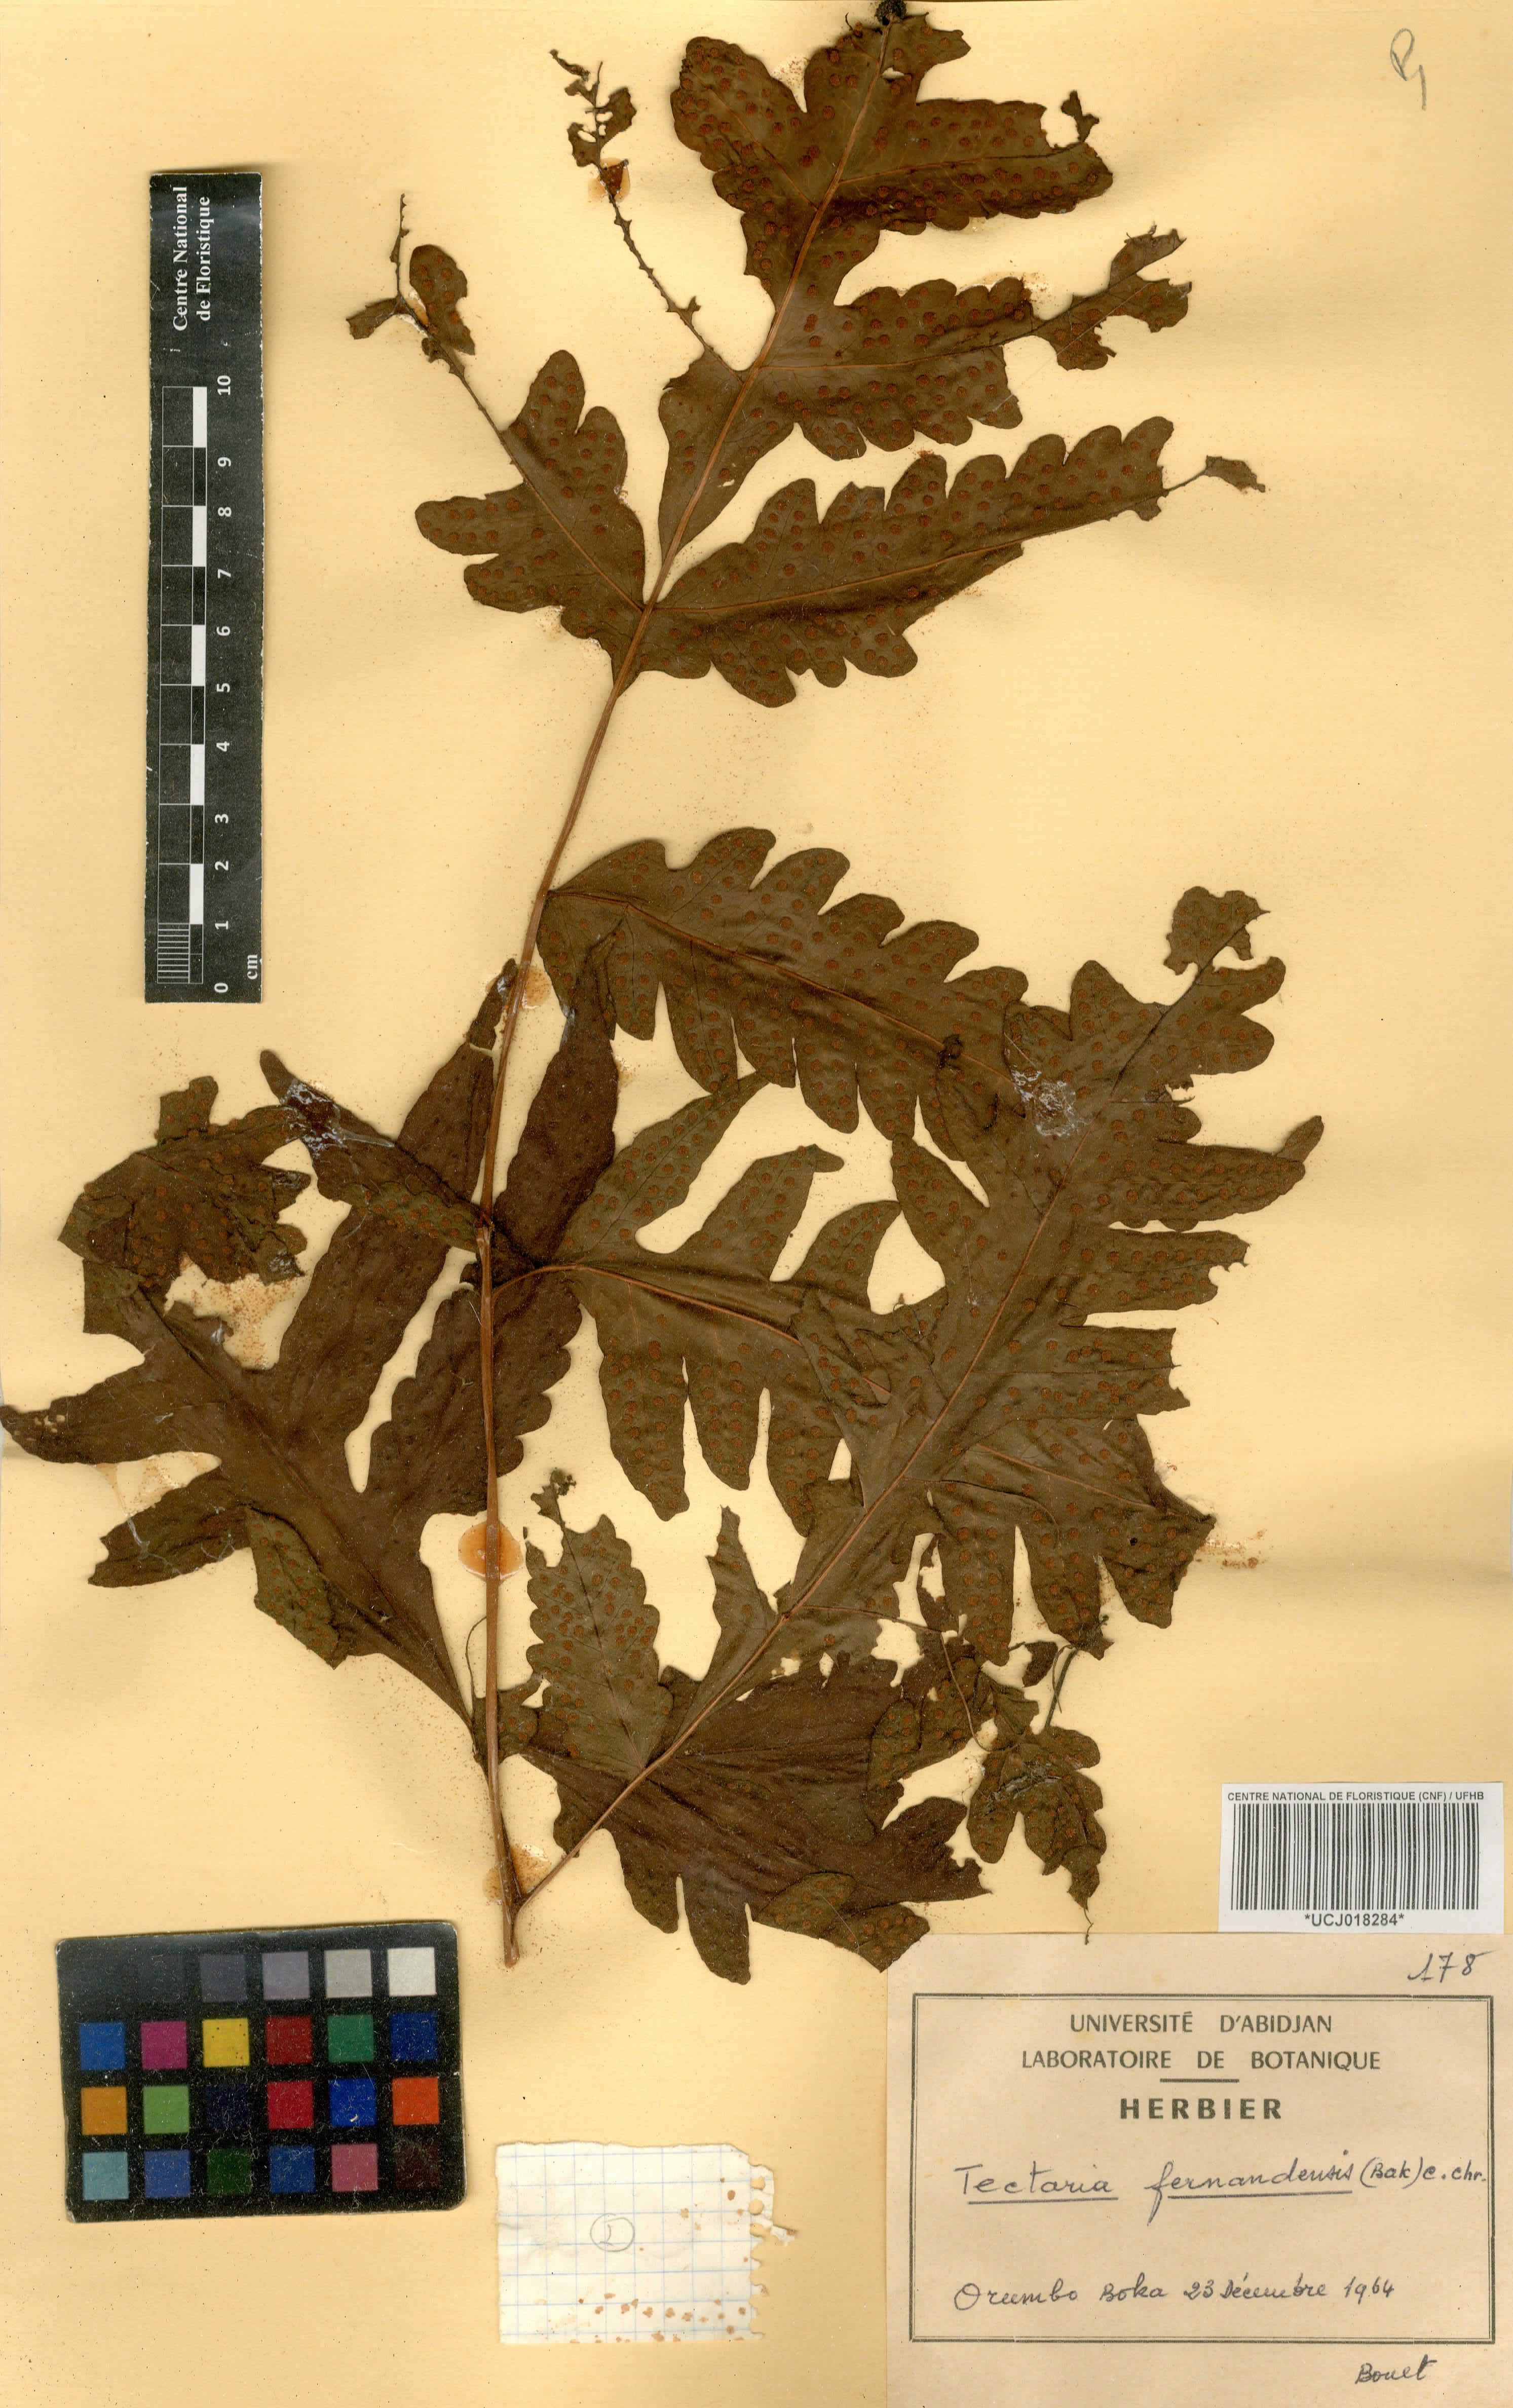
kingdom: Plantae
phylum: Tracheophyta
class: Polypodiopsida
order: Polypodiales
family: Tectariaceae
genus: Tectaria
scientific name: Tectaria fernandensis
